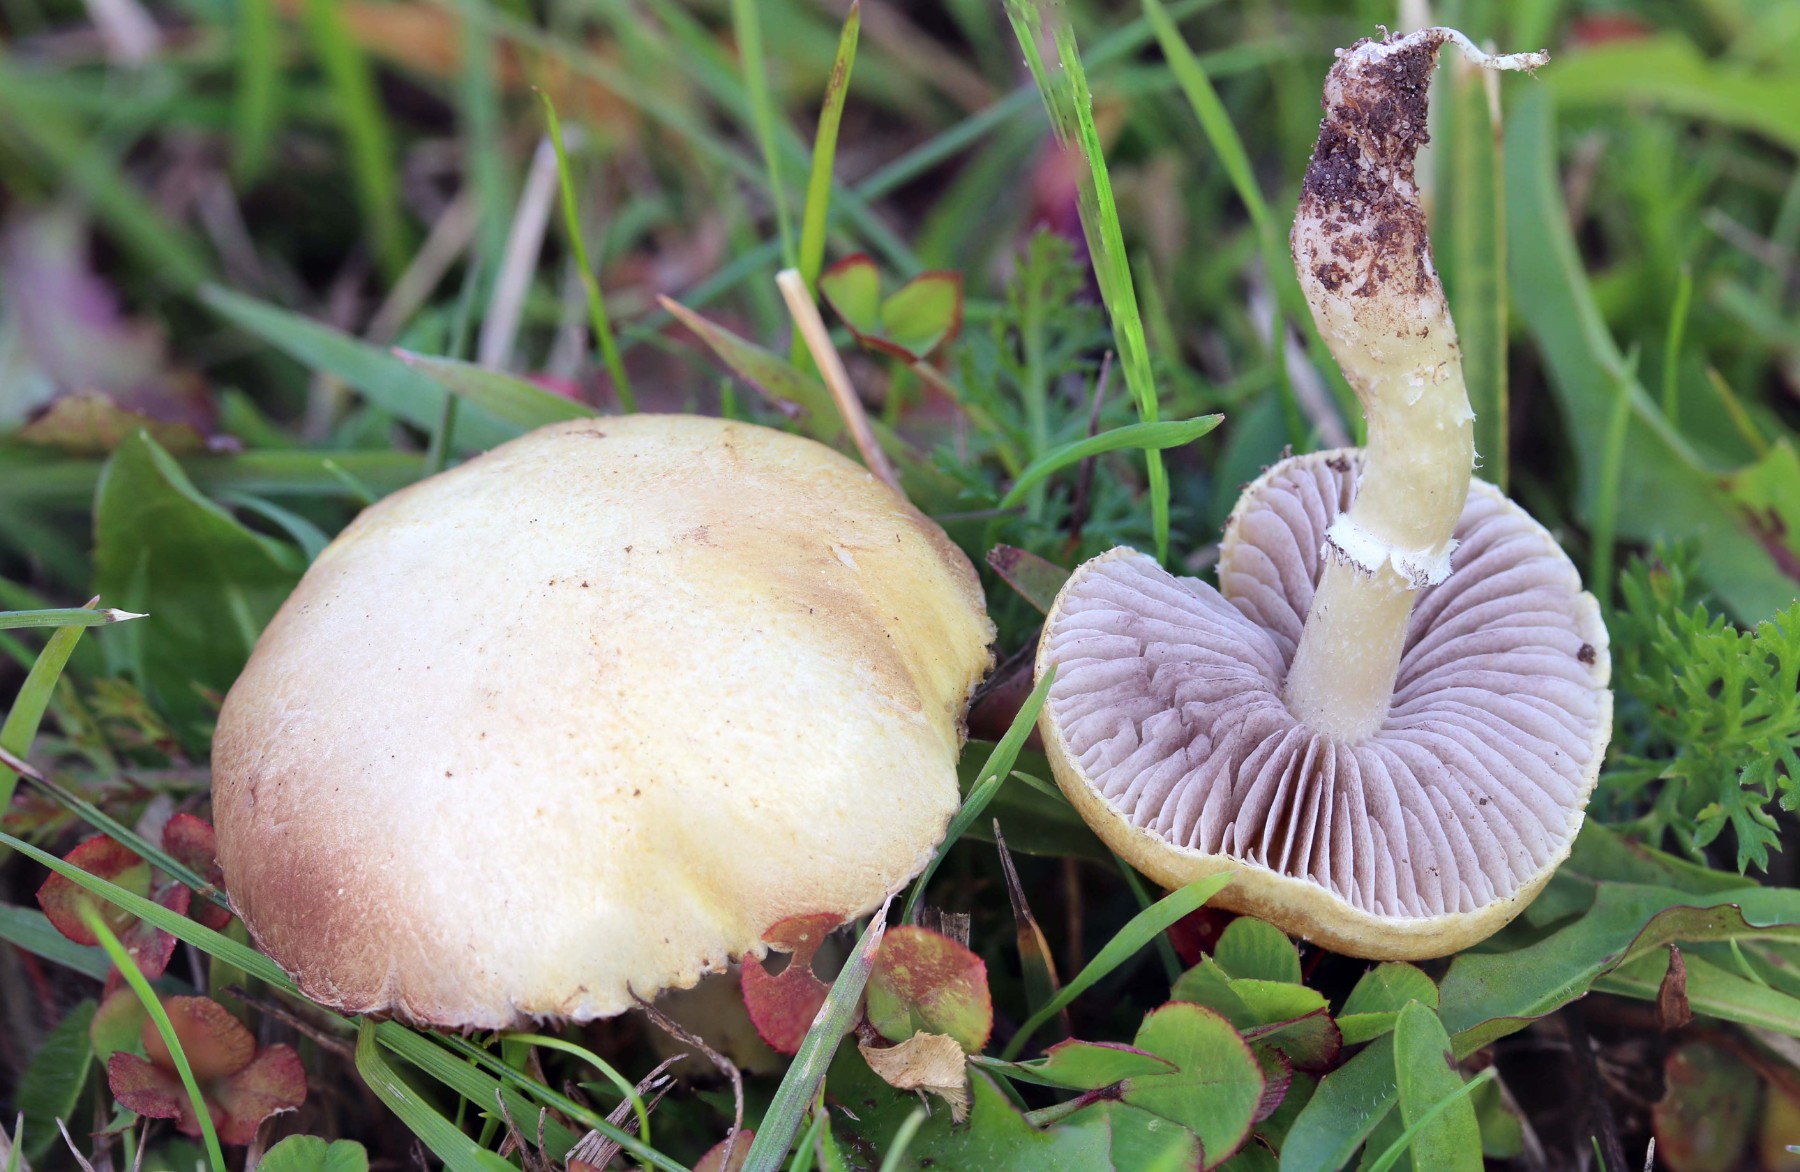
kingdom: Fungi
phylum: Basidiomycota
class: Agaricomycetes
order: Agaricales
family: Hymenogastraceae
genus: Psilocybe
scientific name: Psilocybe coronilla
